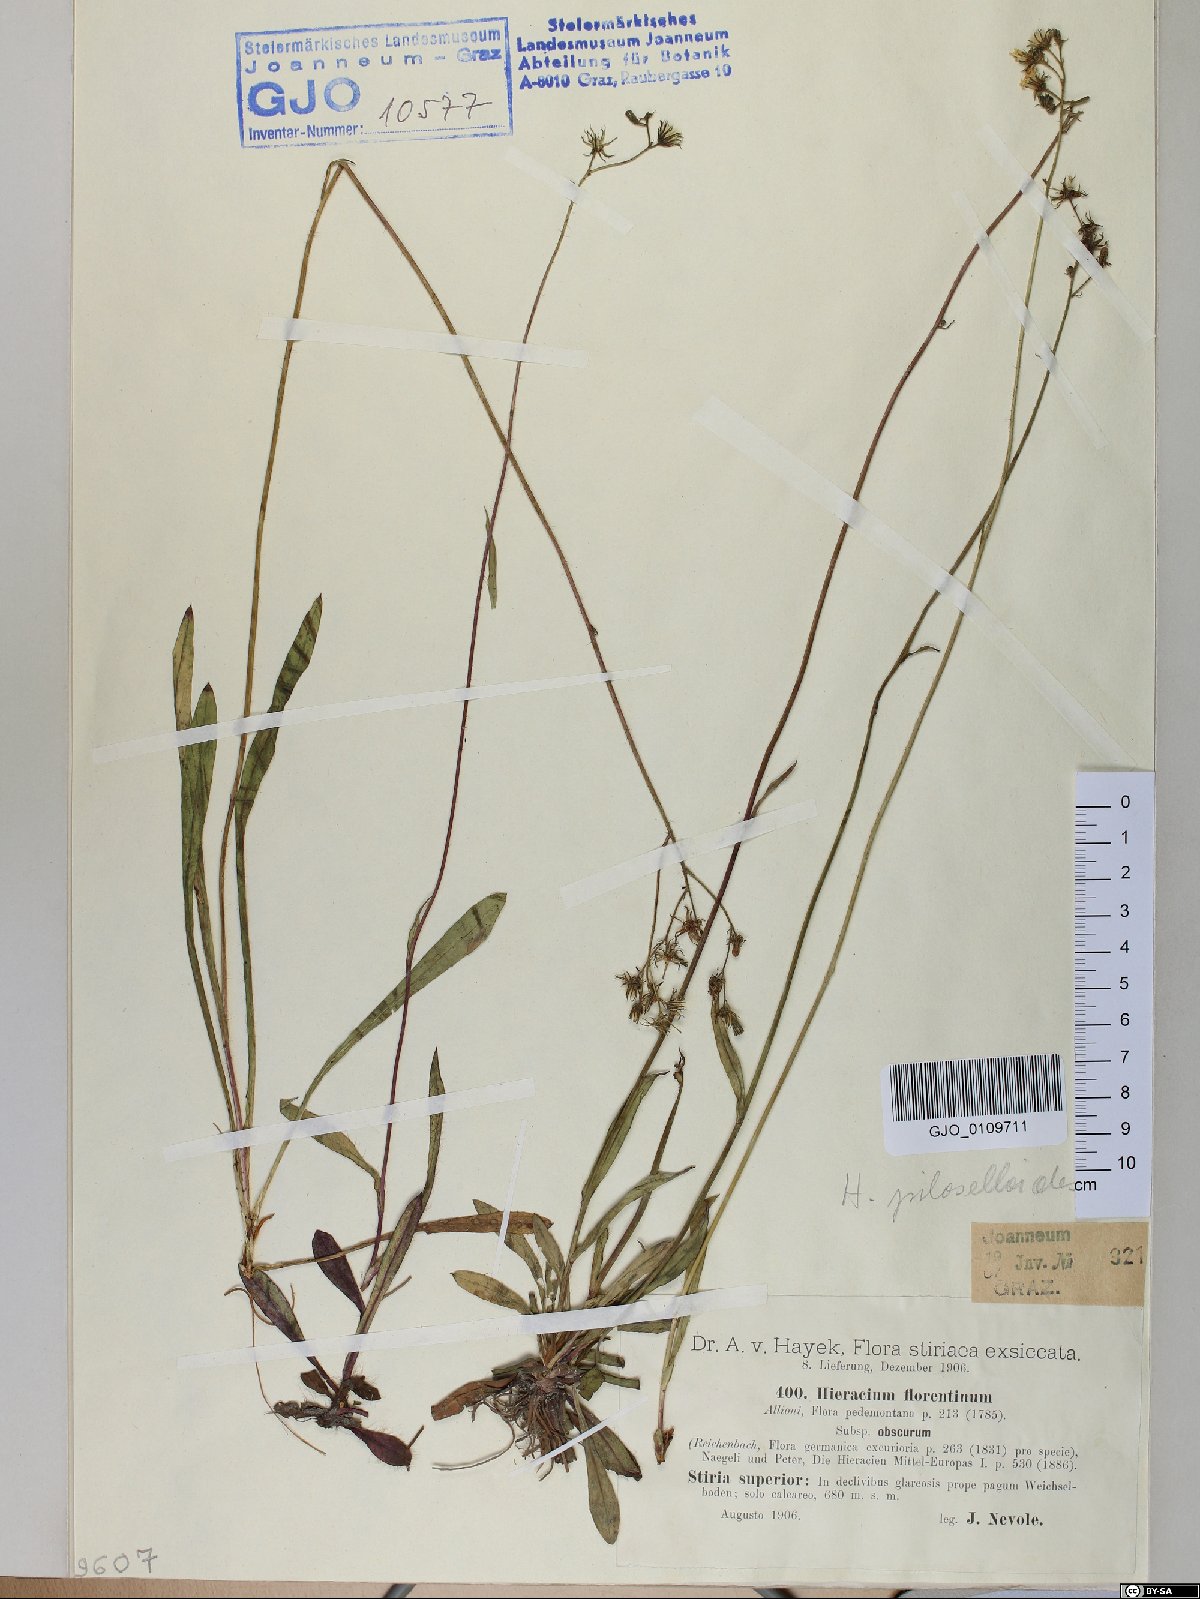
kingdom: Plantae
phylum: Tracheophyta
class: Magnoliopsida
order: Asterales
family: Asteraceae
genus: Pilosella
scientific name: Pilosella piloselloides
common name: Glaucous king-devil
